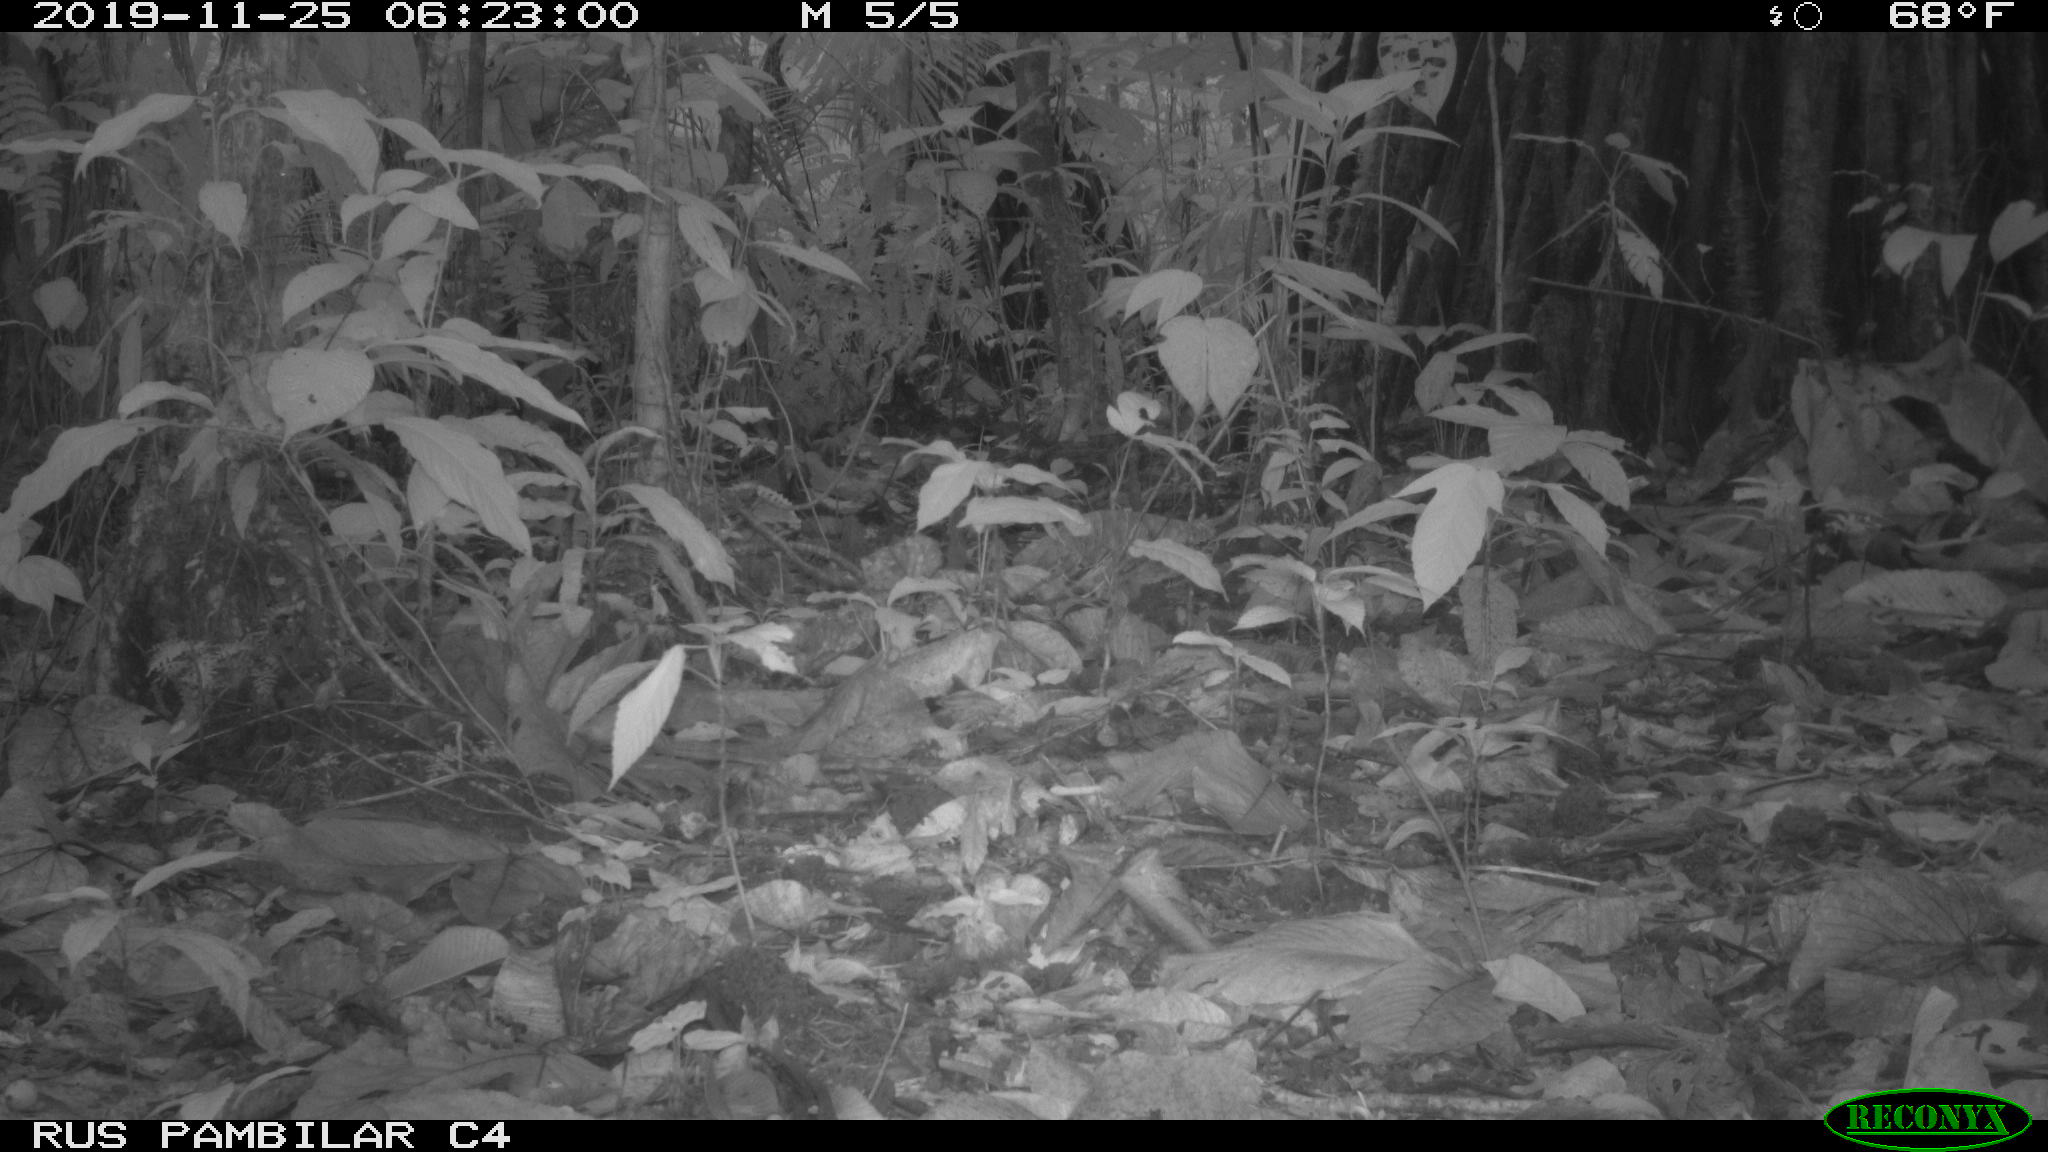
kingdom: Animalia
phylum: Chordata
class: Mammalia
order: Rodentia
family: Dasyproctidae
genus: Dasyprocta
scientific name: Dasyprocta punctata
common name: Central american agouti
